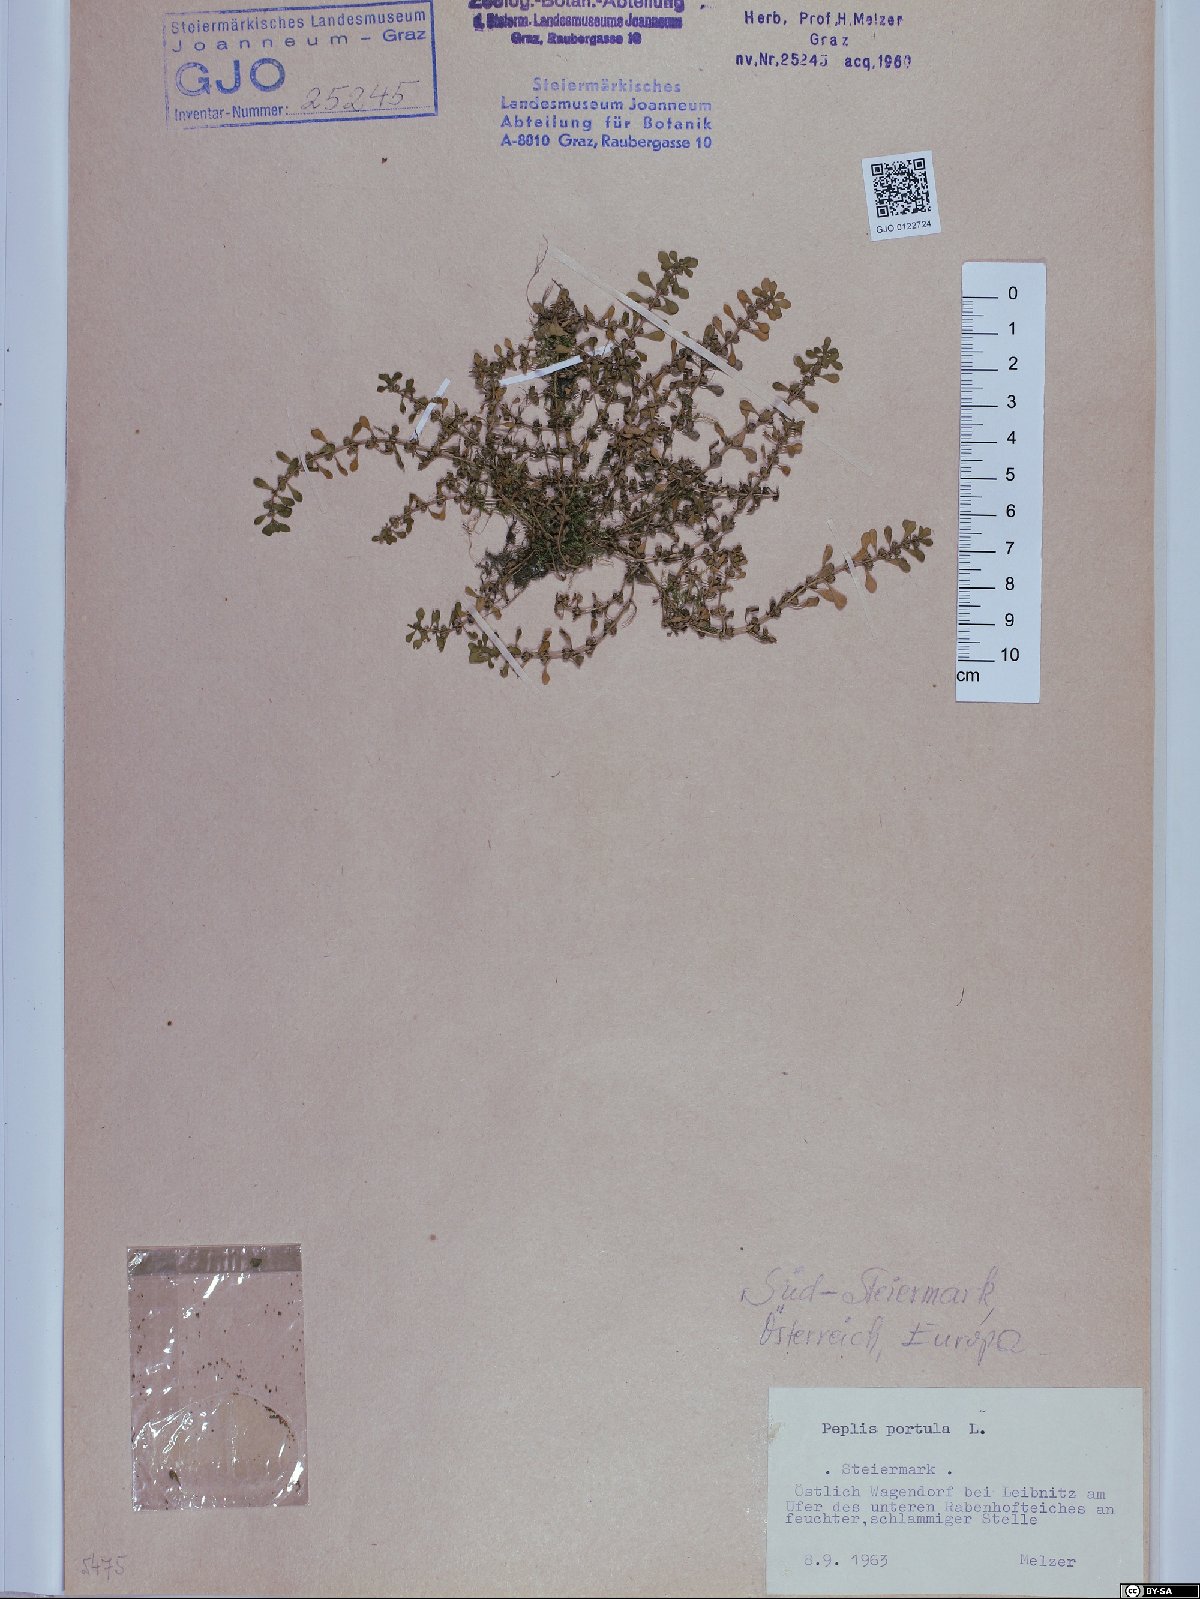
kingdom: Plantae
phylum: Tracheophyta
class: Magnoliopsida
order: Myrtales
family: Lythraceae
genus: Lythrum
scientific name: Lythrum portula
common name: Water purslane
